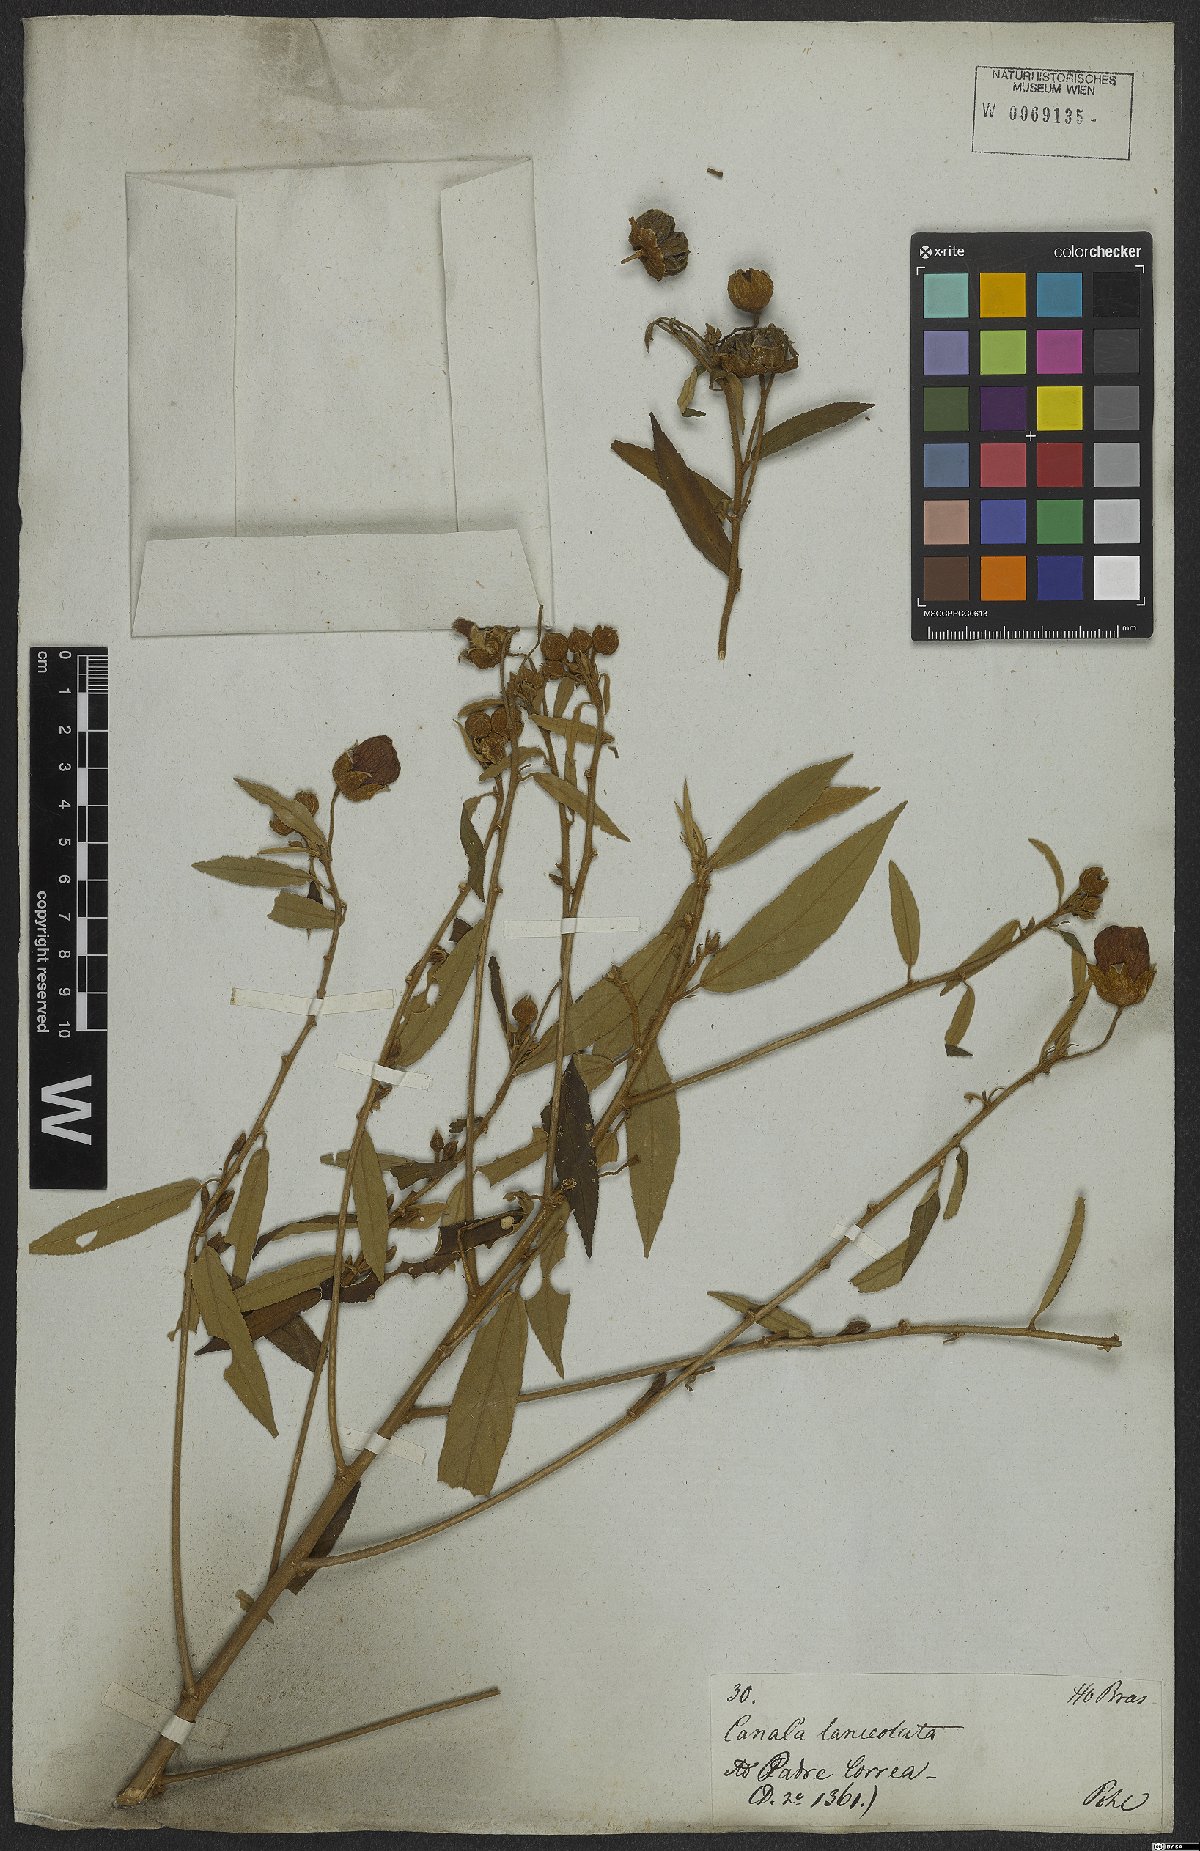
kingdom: Plantae
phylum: Tracheophyta
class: Magnoliopsida
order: Malvales
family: Malvaceae
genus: Callianthe
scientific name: Callianthe rufinerva
